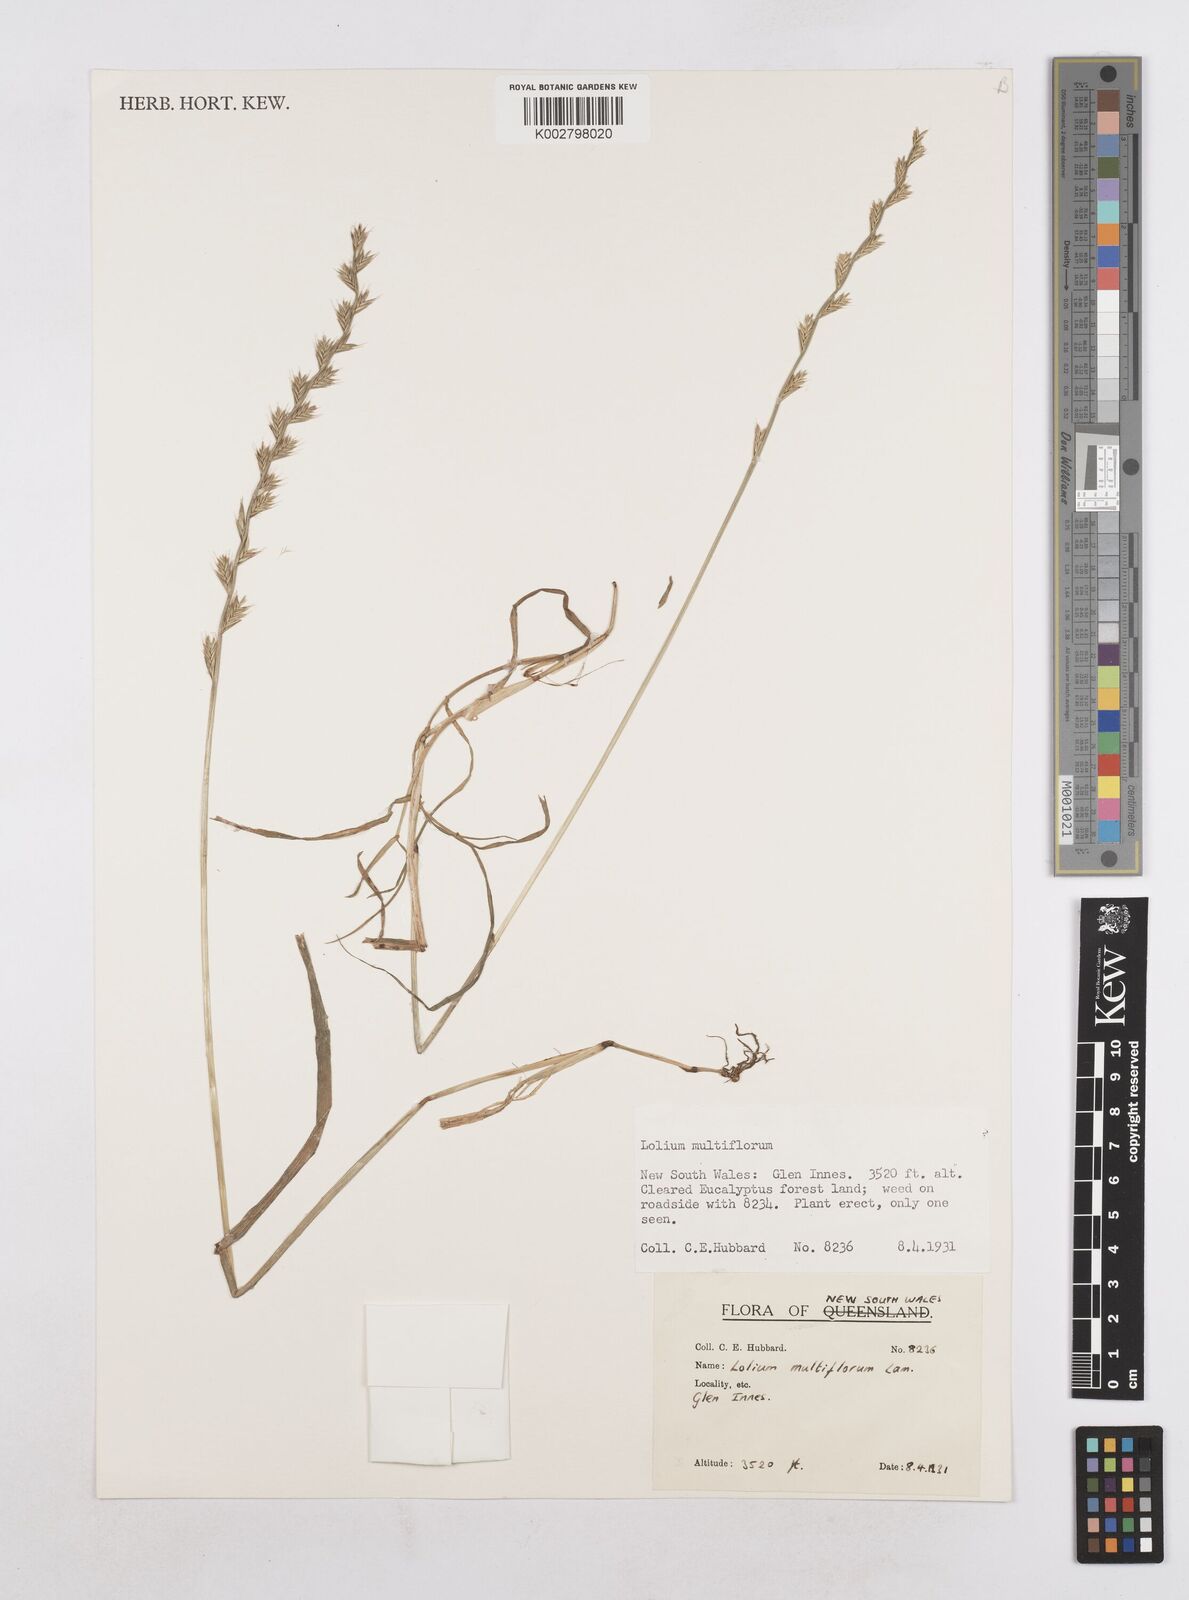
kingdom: Plantae
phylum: Tracheophyta
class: Liliopsida
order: Poales
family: Poaceae
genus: Lolium
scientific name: Lolium multiflorum
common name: Annual ryegrass
